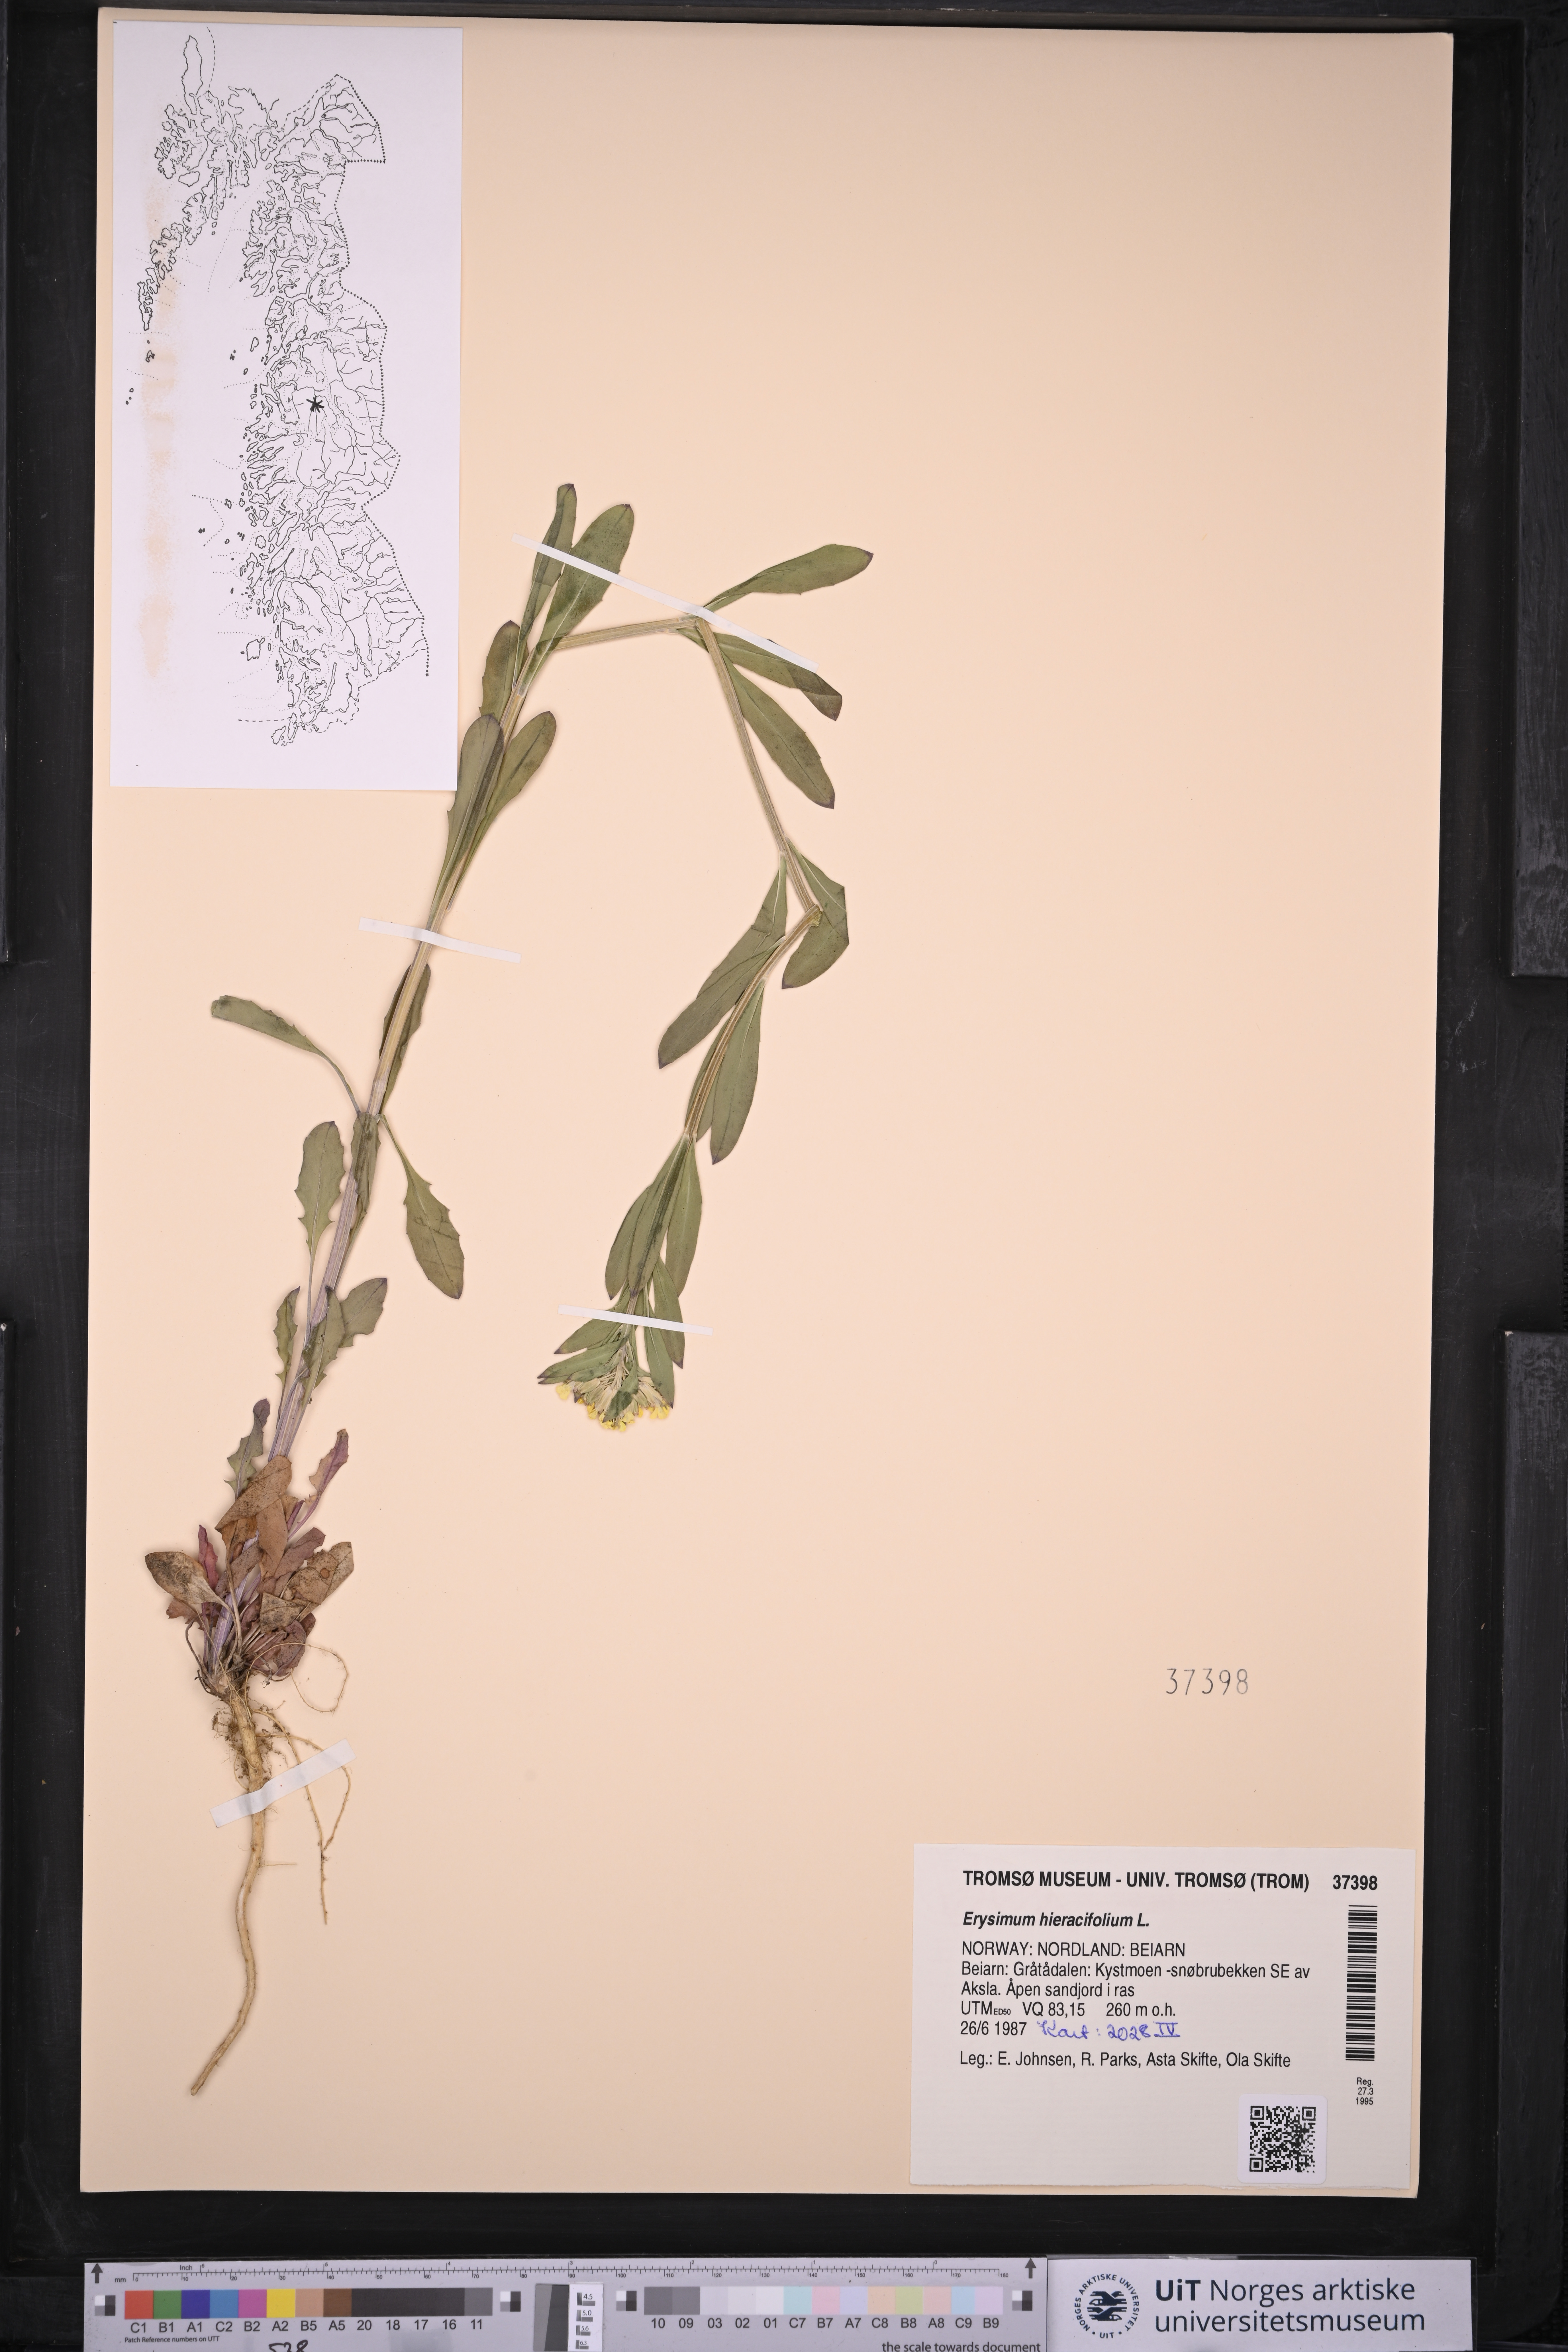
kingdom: Plantae
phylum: Tracheophyta
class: Magnoliopsida
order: Brassicales
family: Brassicaceae
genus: Erysimum
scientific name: Erysimum hieraciifolium
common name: European wallflower
